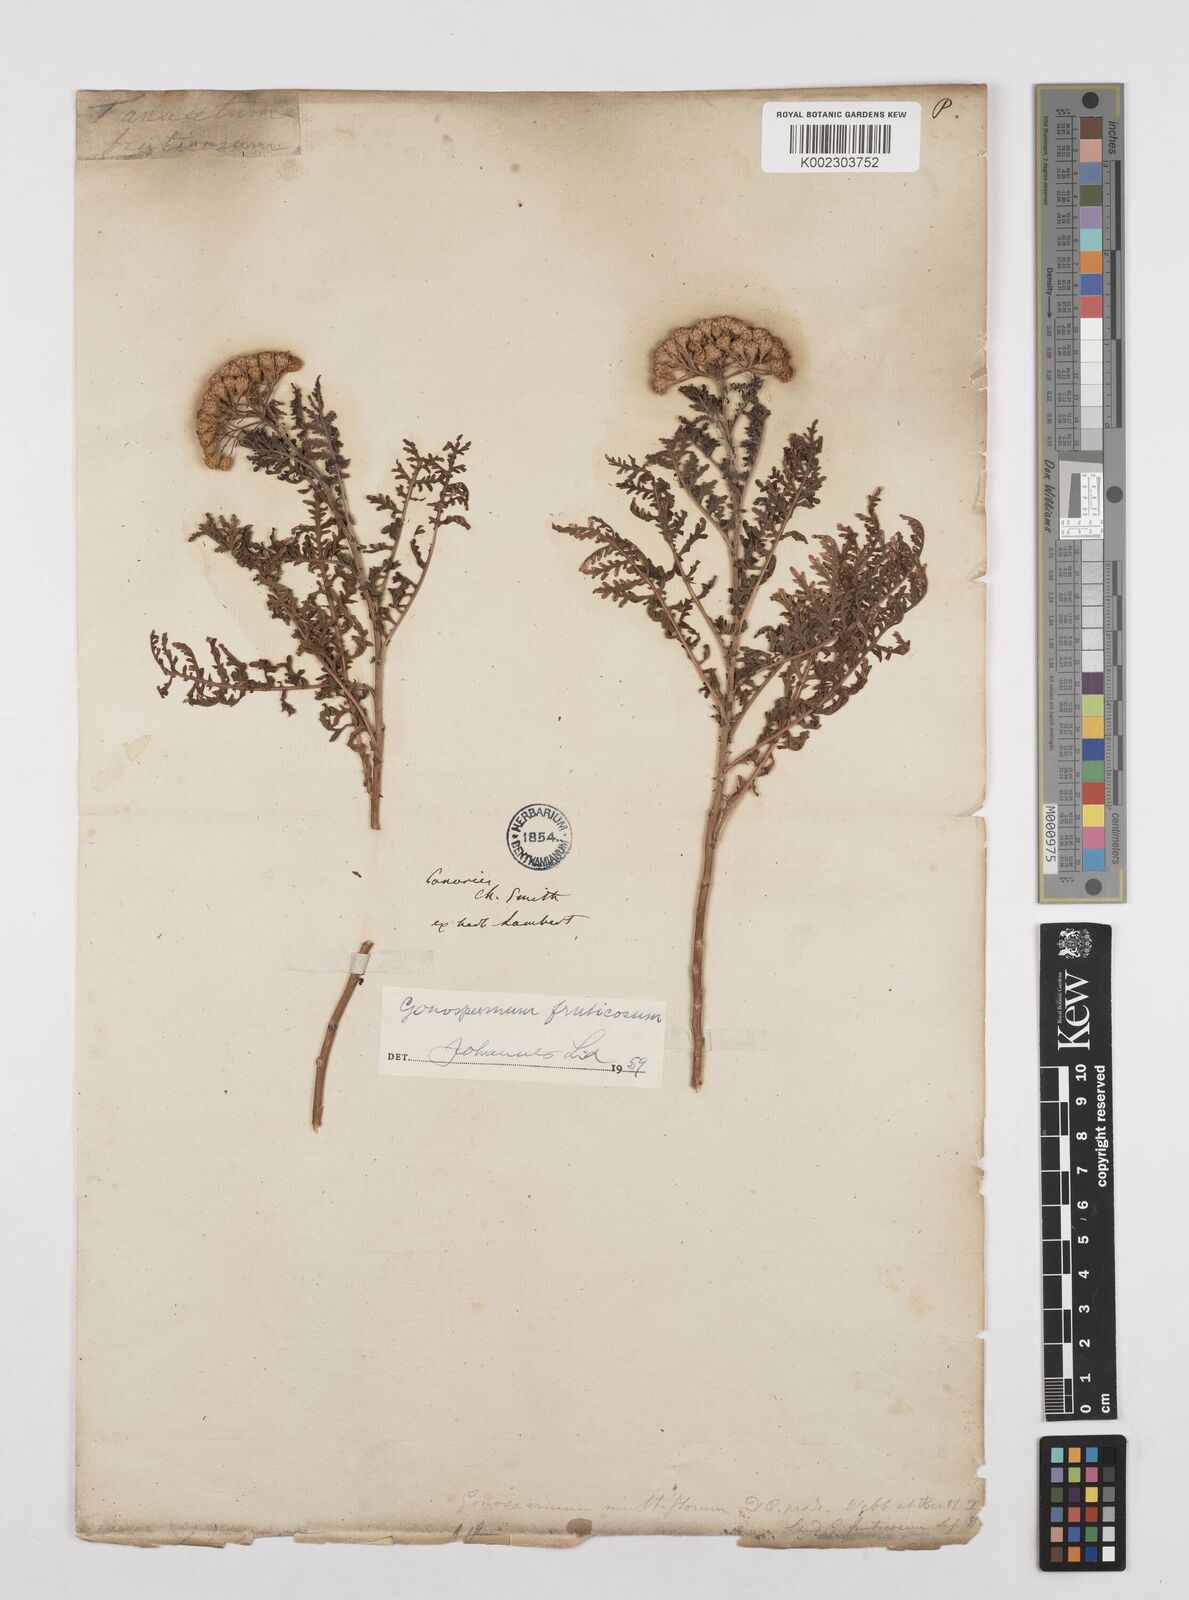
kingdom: Plantae
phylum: Tracheophyta
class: Magnoliopsida
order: Asterales
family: Asteraceae
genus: Gonospermum
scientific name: Gonospermum fruticosum
